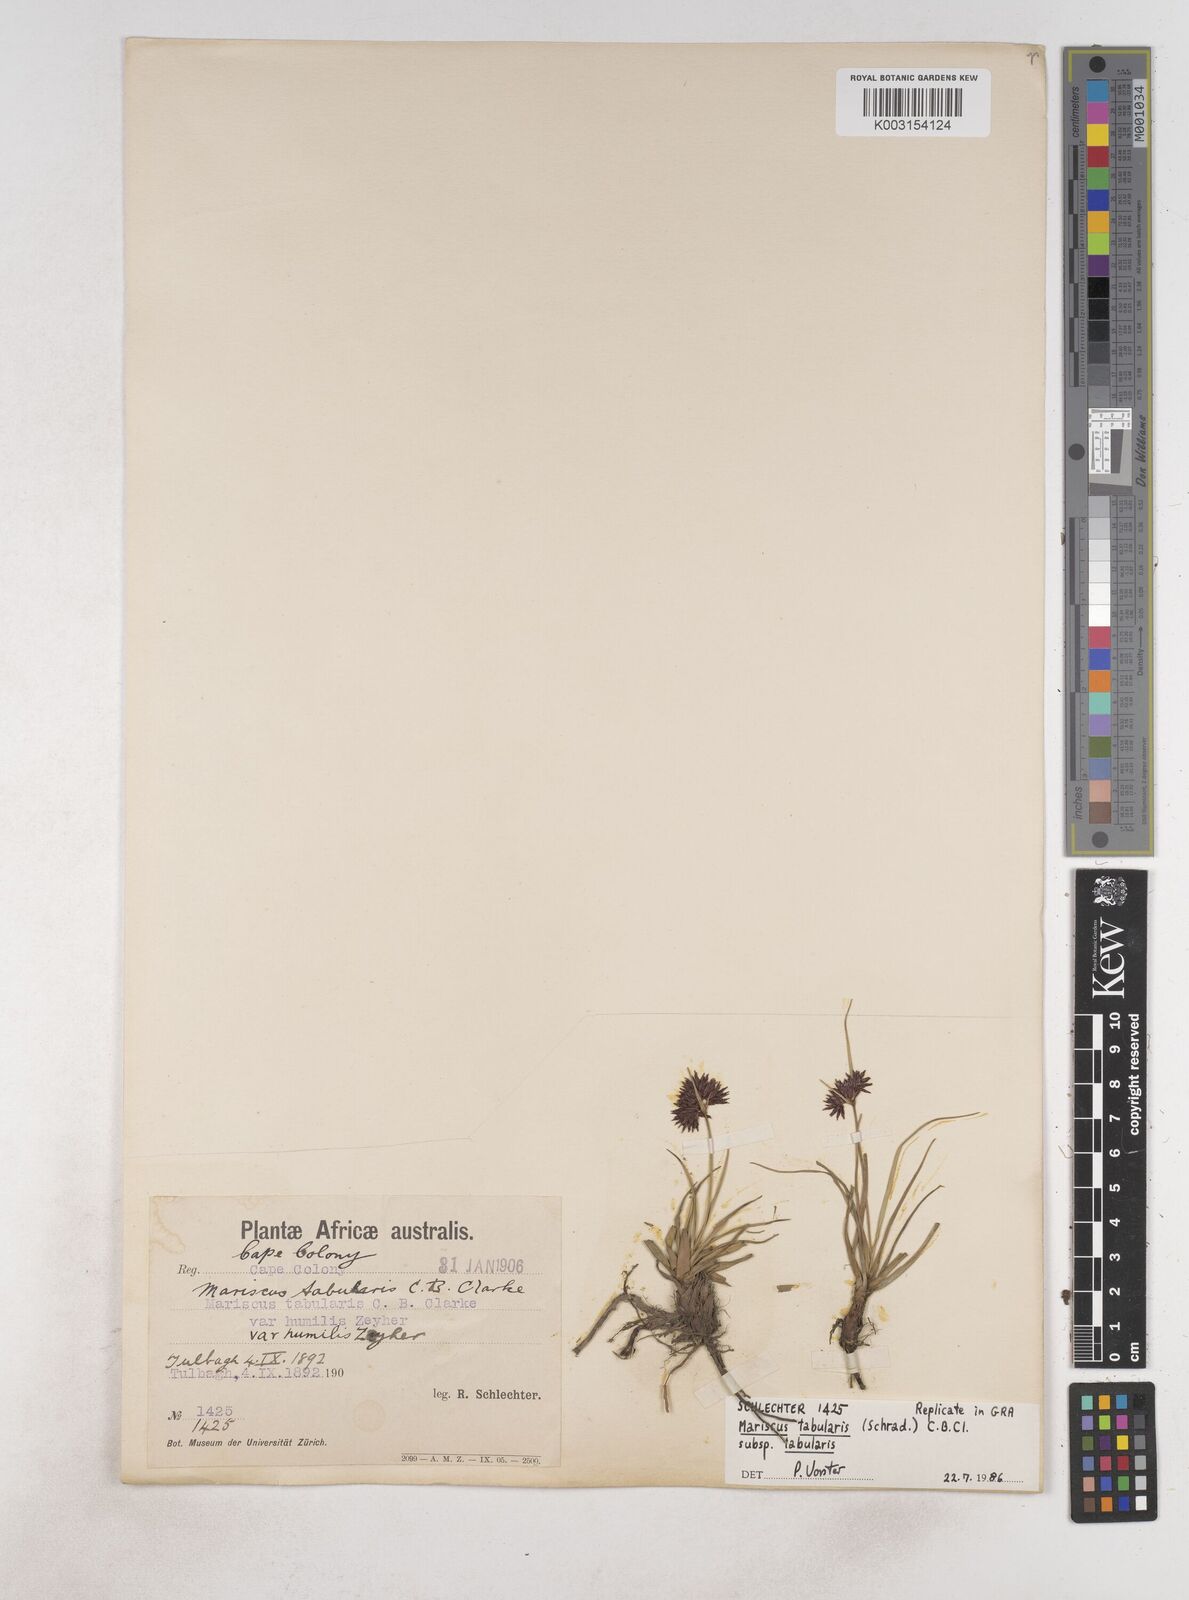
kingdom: Plantae
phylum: Tracheophyta
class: Liliopsida
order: Poales
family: Cyperaceae
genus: Cyperus
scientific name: Cyperus tabularis
